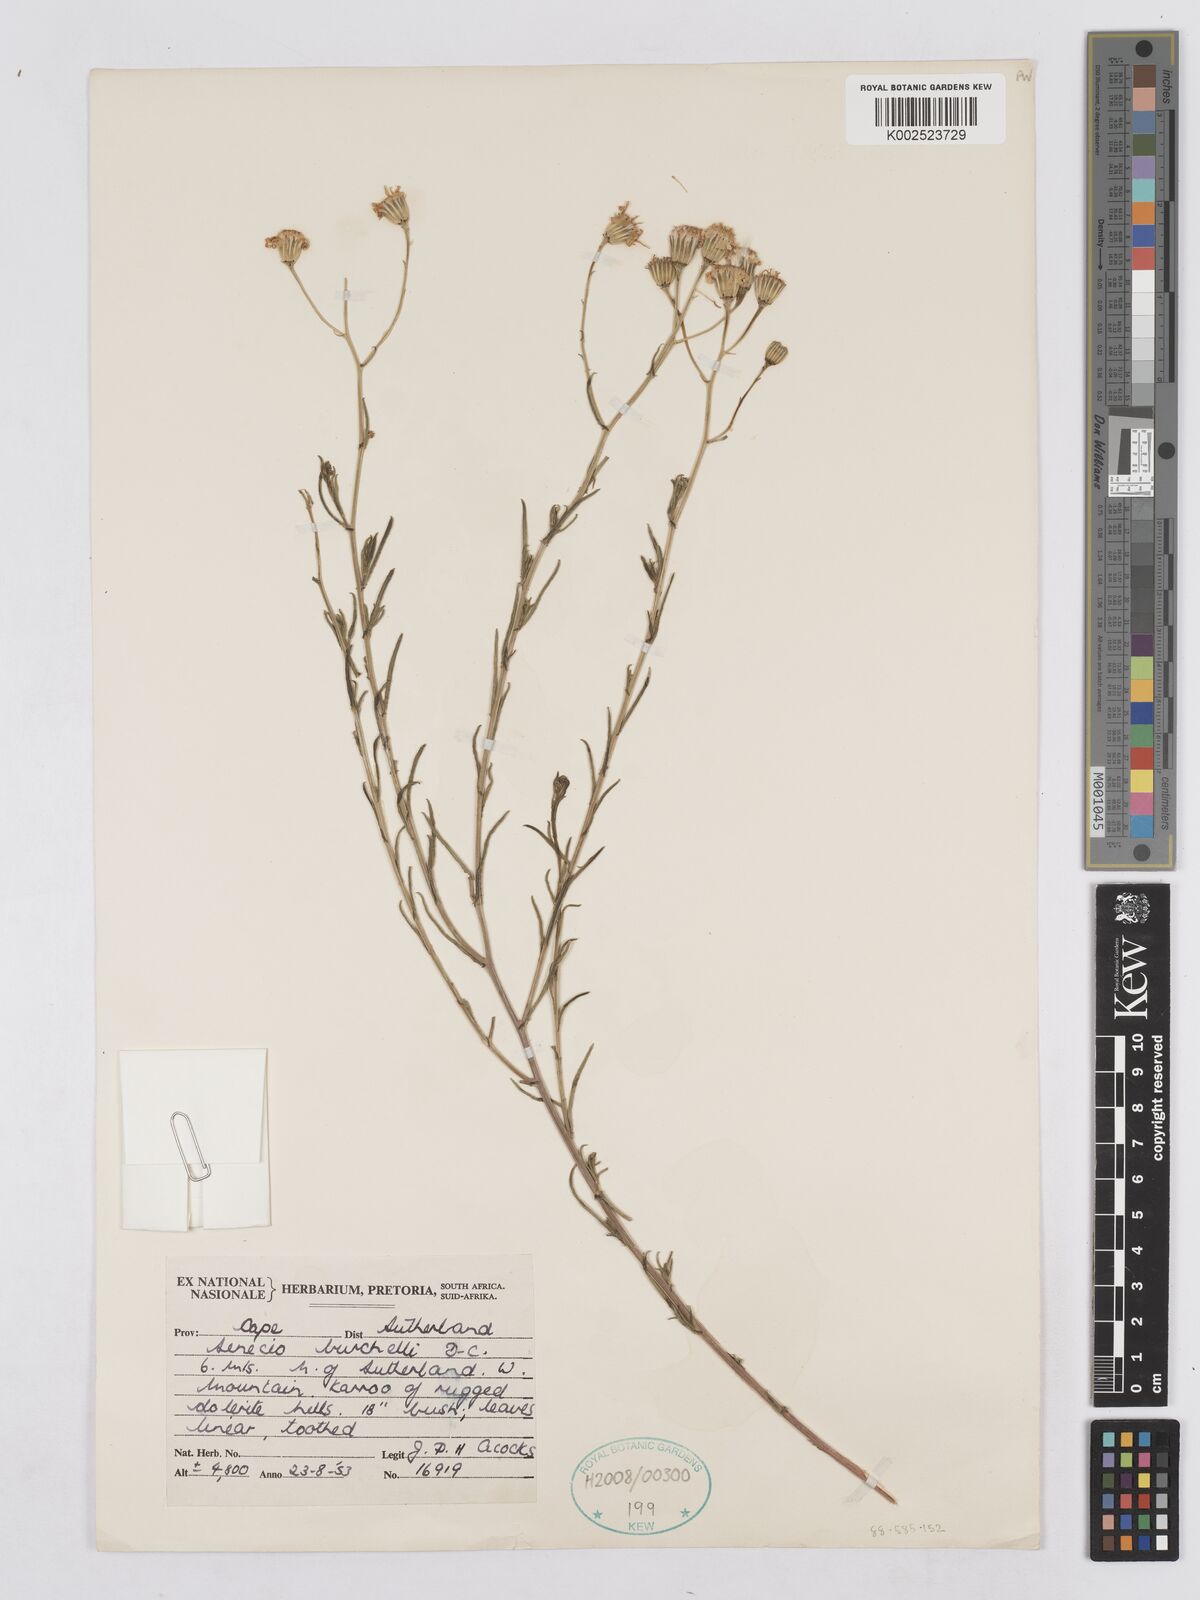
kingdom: Plantae
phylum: Tracheophyta
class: Magnoliopsida
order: Asterales
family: Asteraceae
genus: Senecio
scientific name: Senecio burchellii
